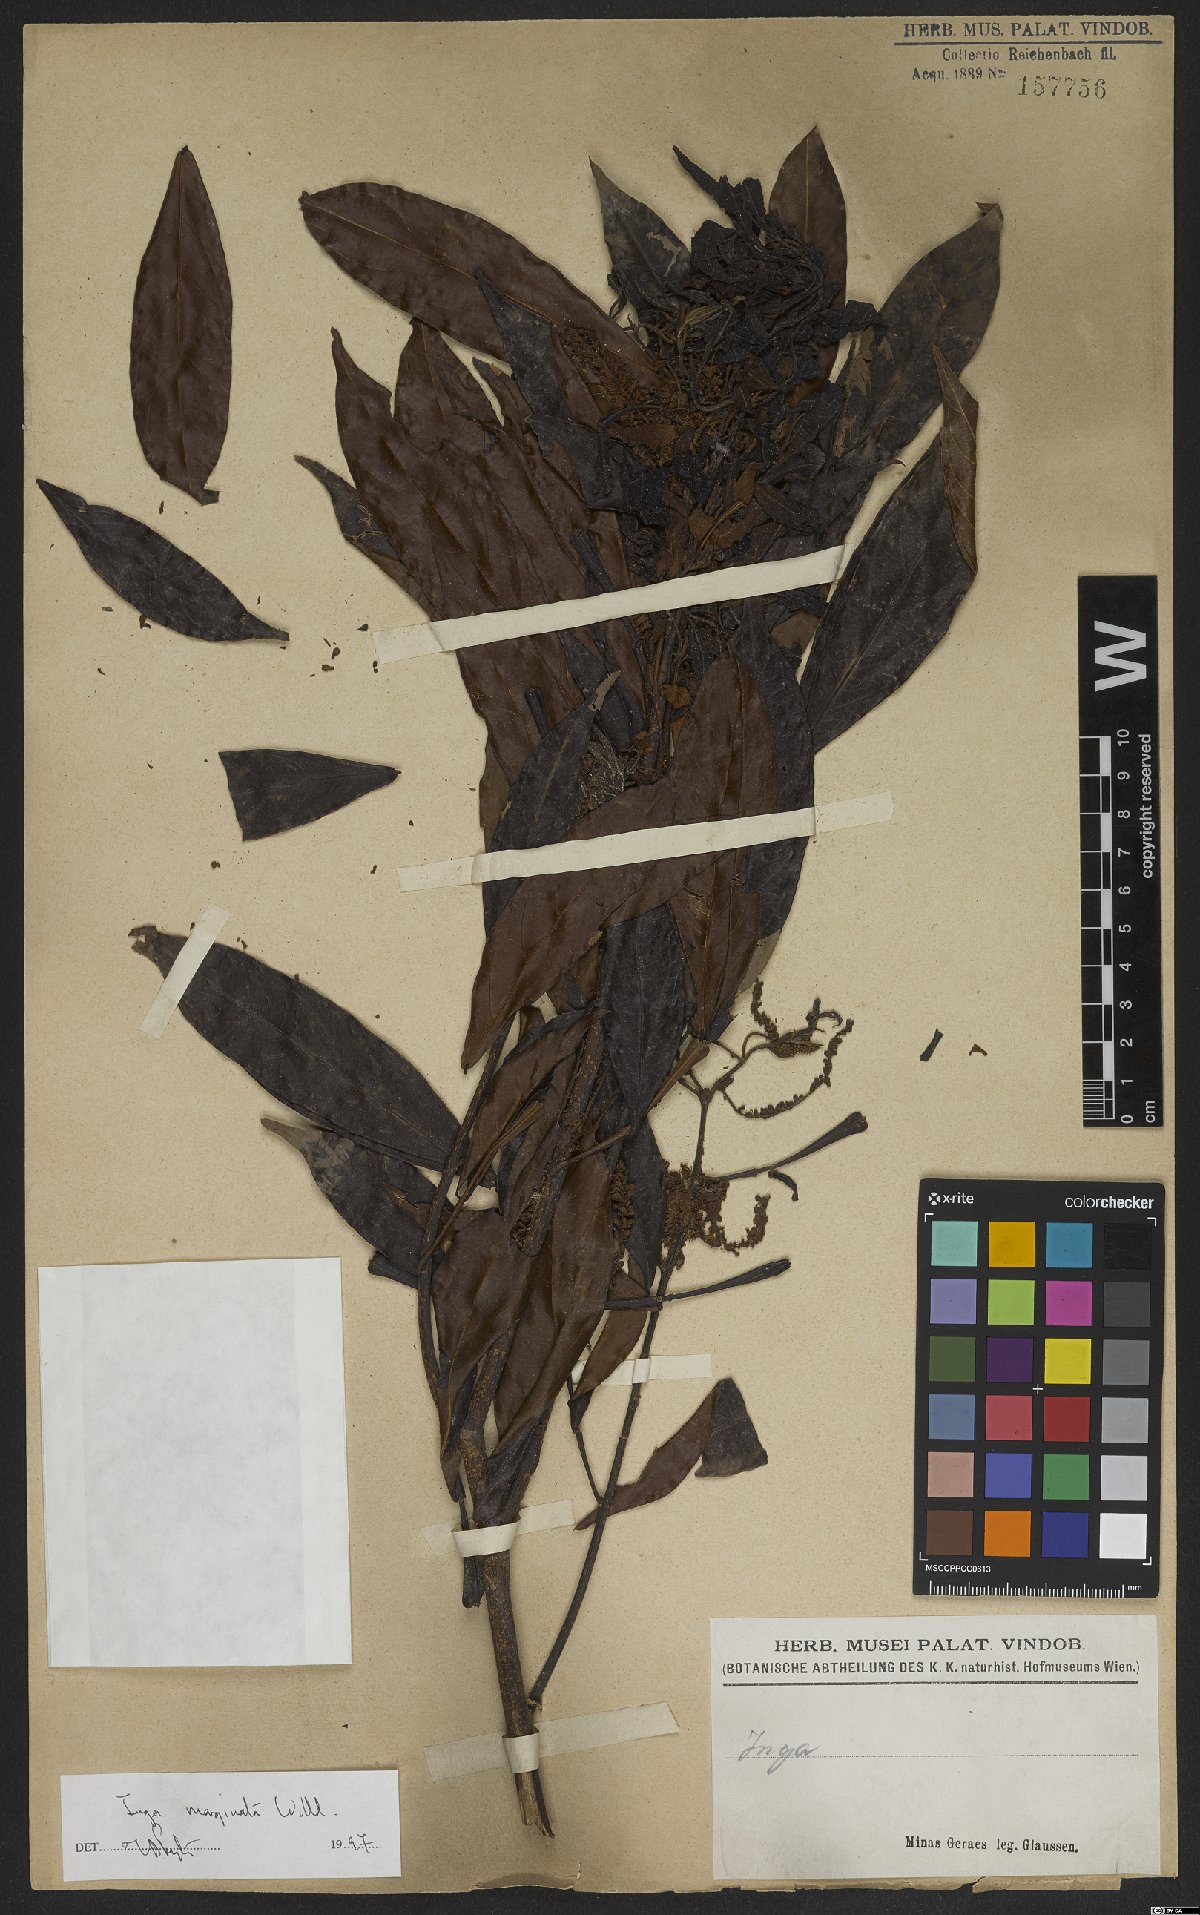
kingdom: Plantae
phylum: Tracheophyta
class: Magnoliopsida
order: Fabales
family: Fabaceae
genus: Inga
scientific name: Inga marginata
